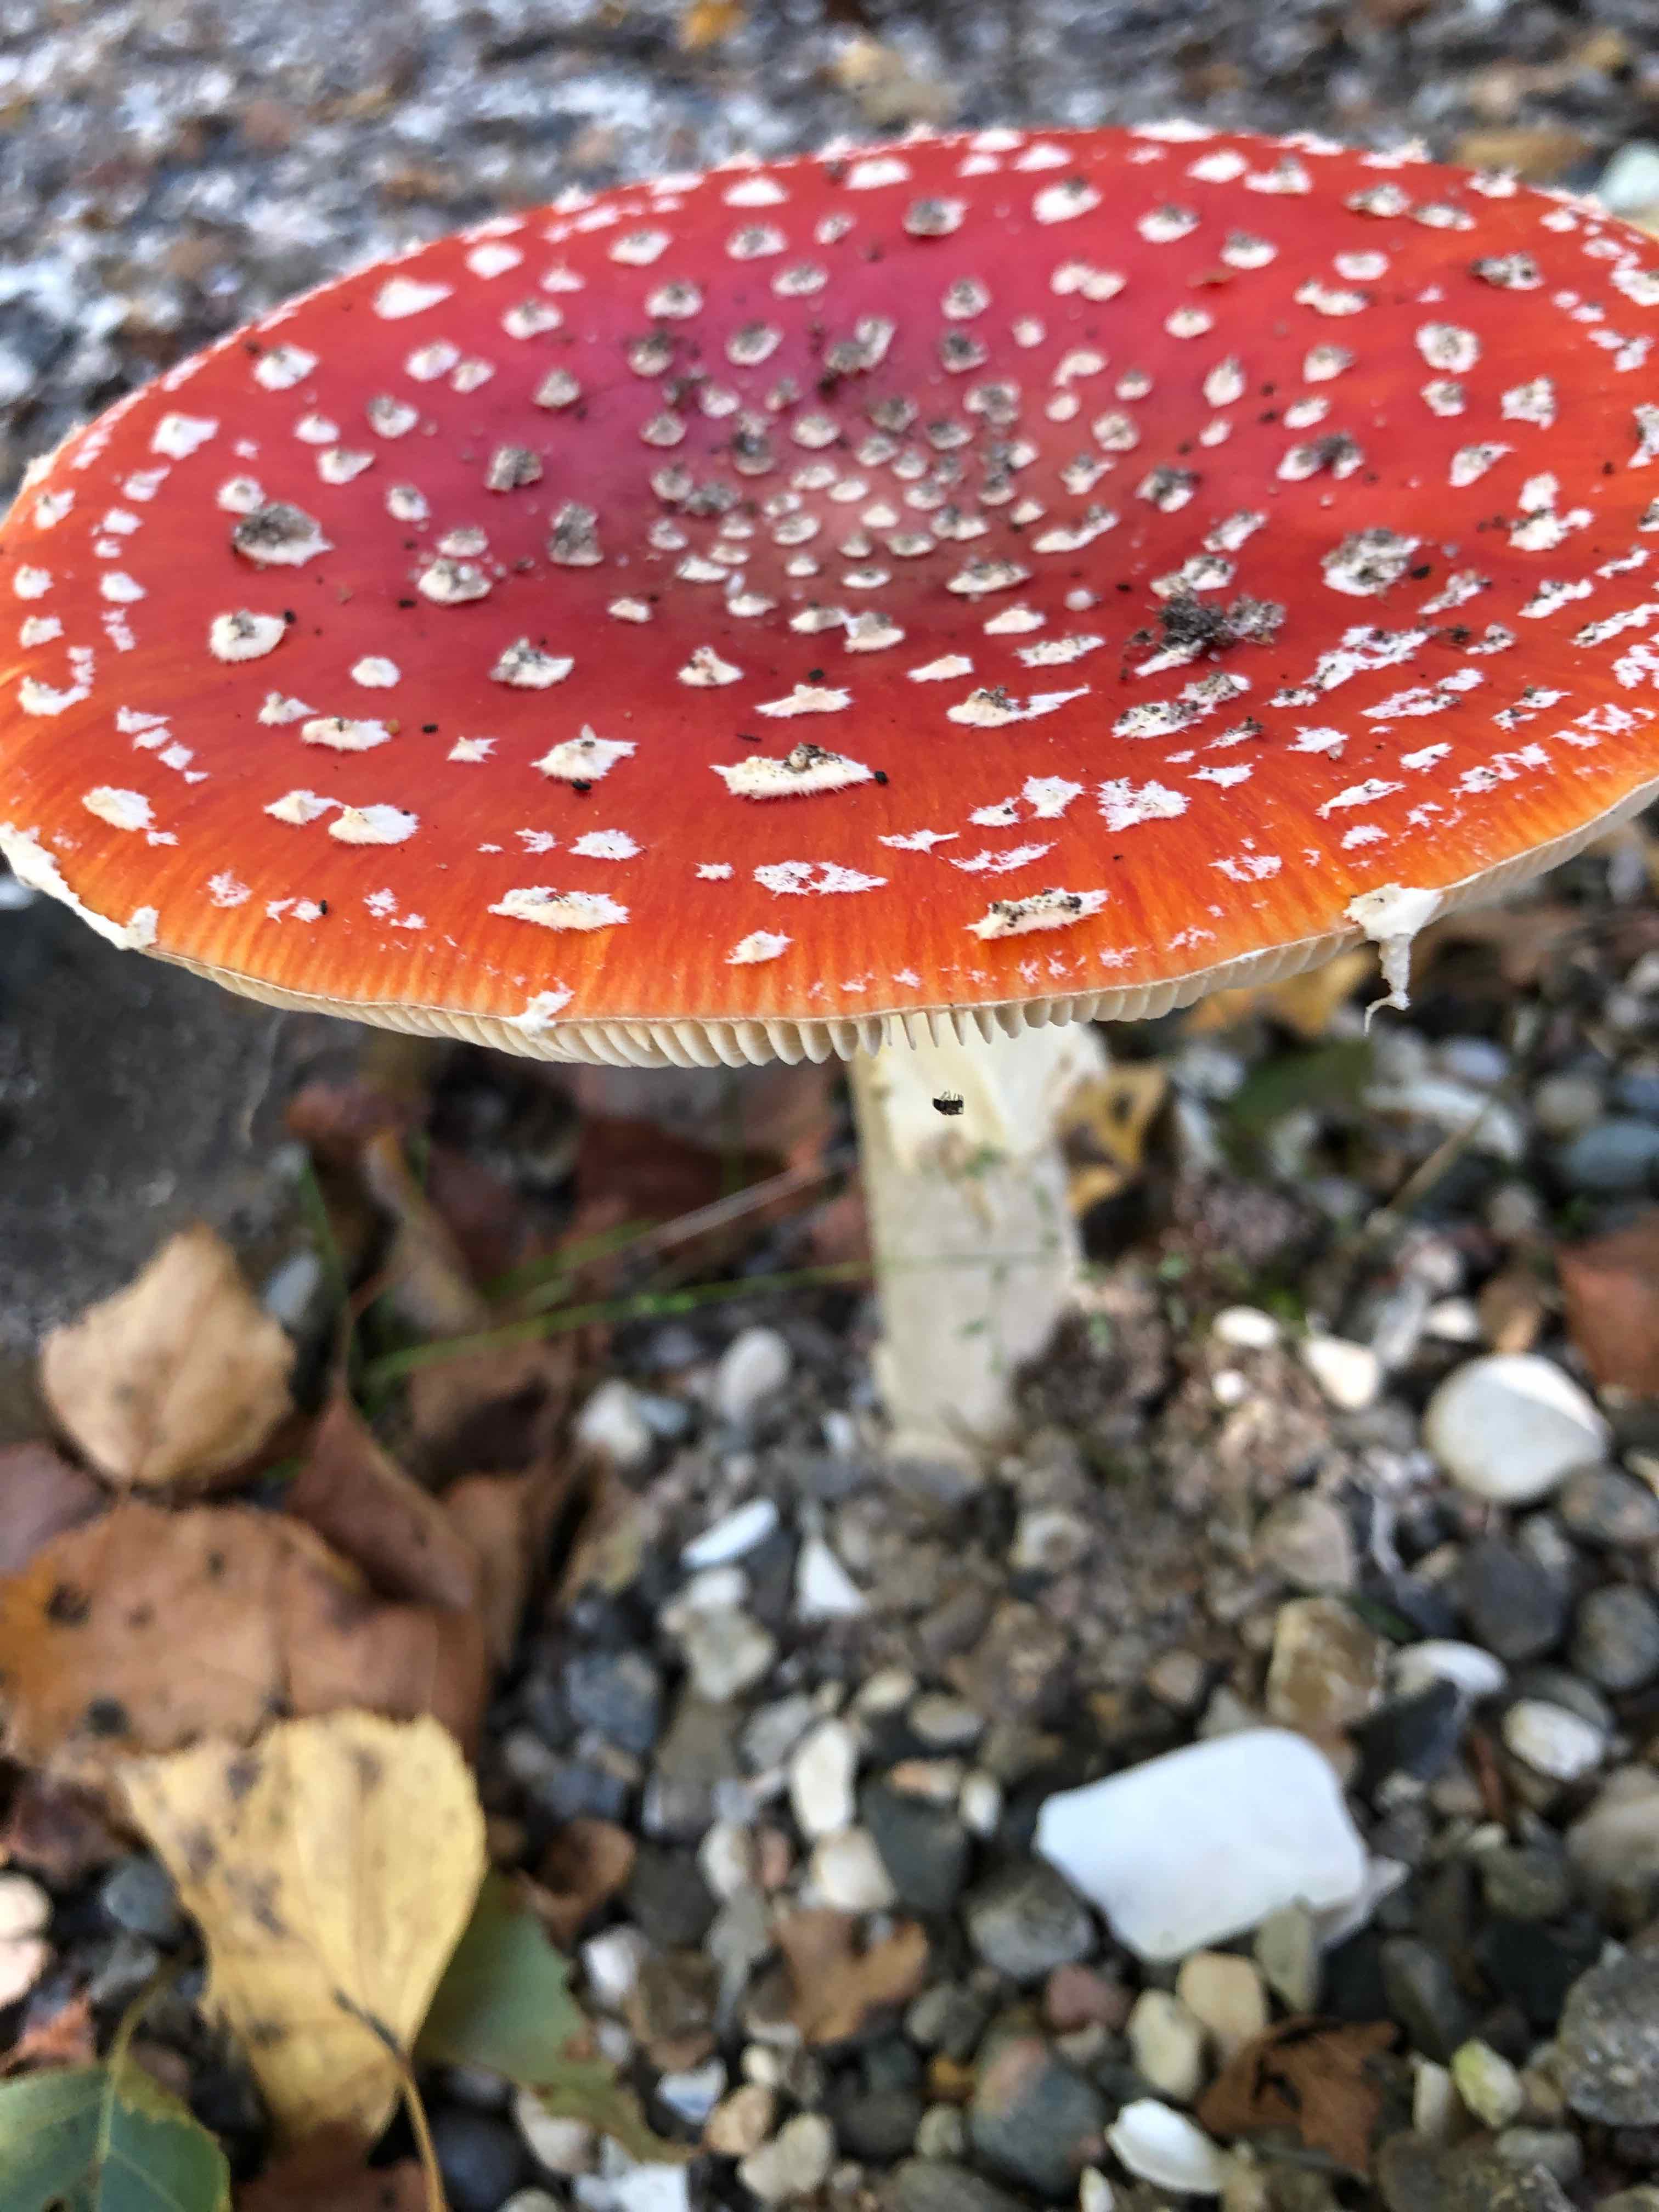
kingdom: Fungi
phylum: Basidiomycota
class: Agaricomycetes
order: Agaricales
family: Amanitaceae
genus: Amanita
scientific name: Amanita muscaria
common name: rød fluesvamp
